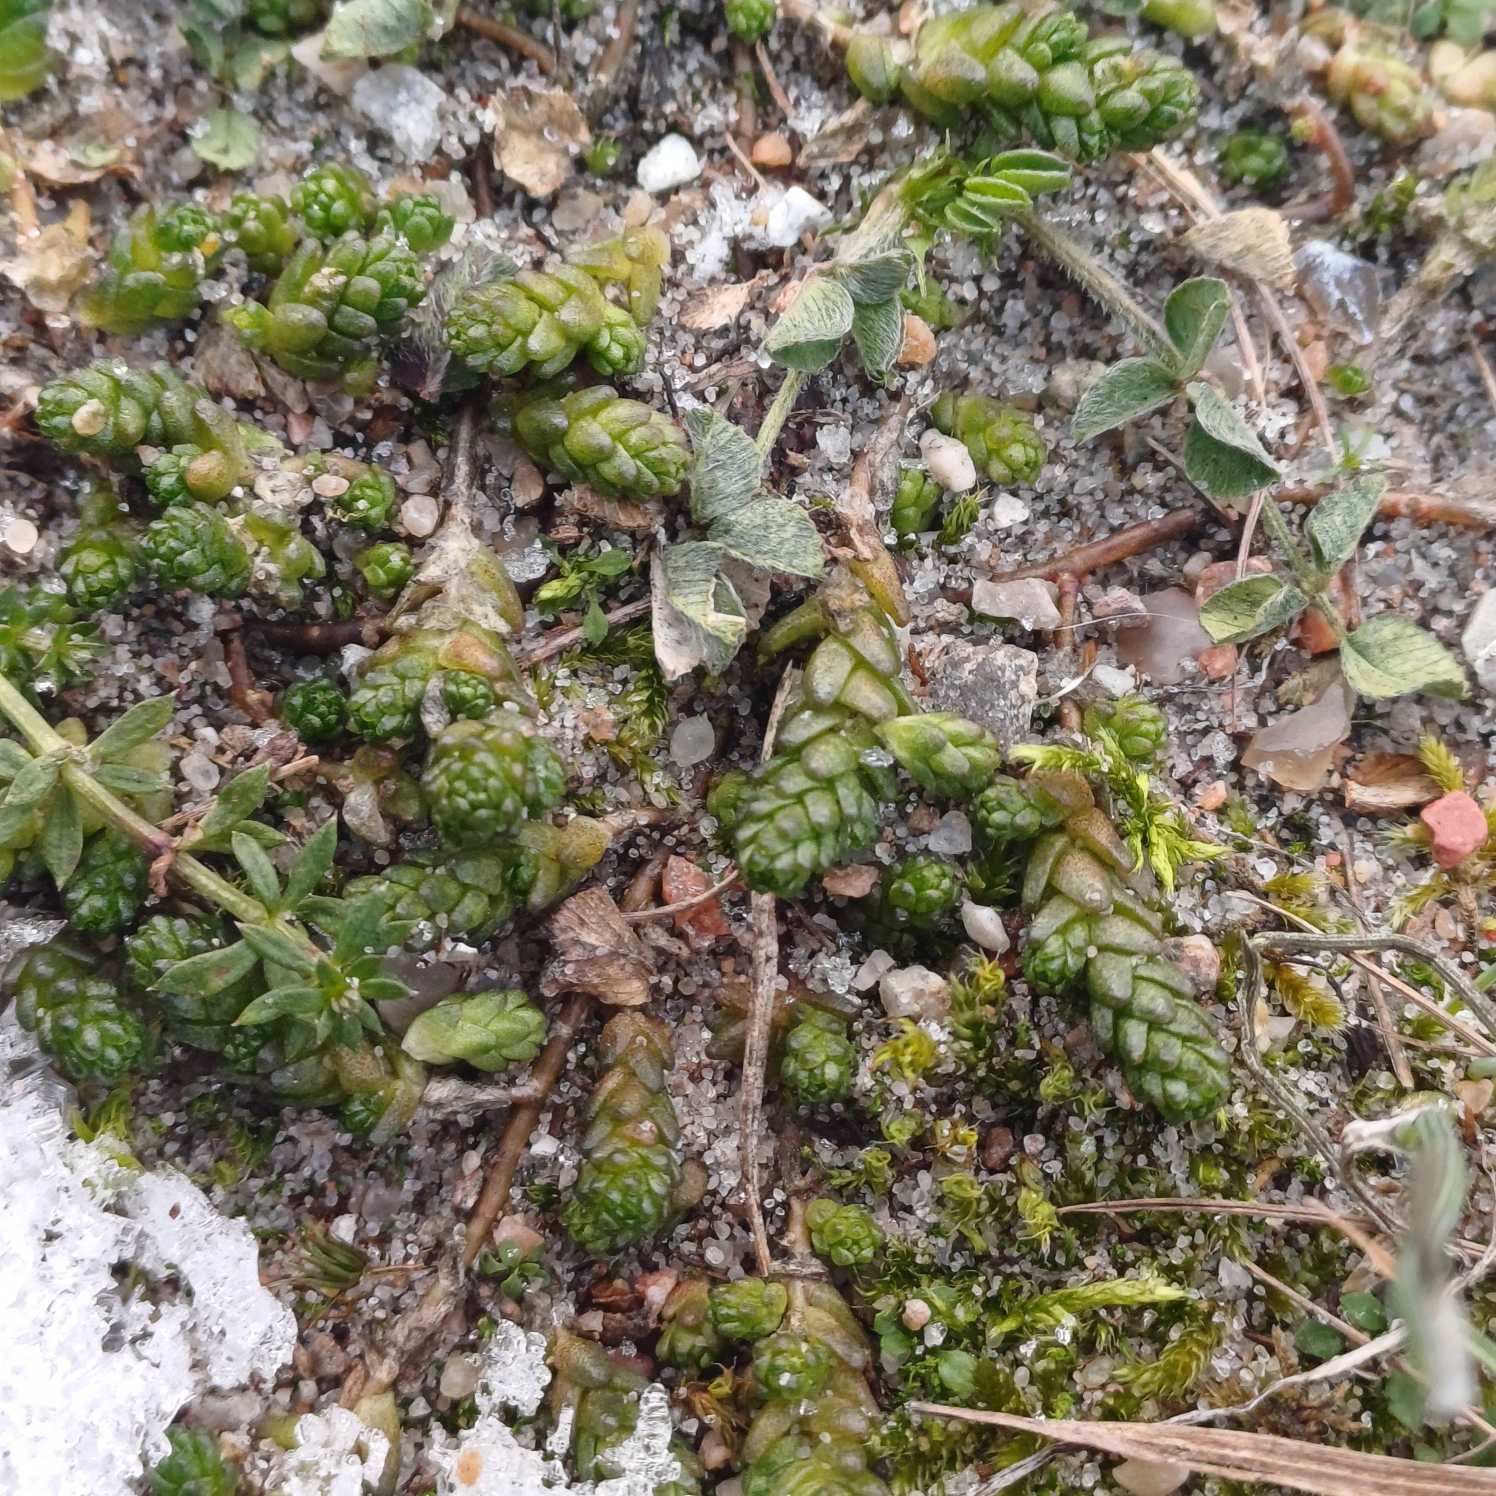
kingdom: Plantae
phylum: Tracheophyta
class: Magnoliopsida
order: Saxifragales
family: Crassulaceae
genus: Sedum
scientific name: Sedum acre
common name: Bidende stenurt
